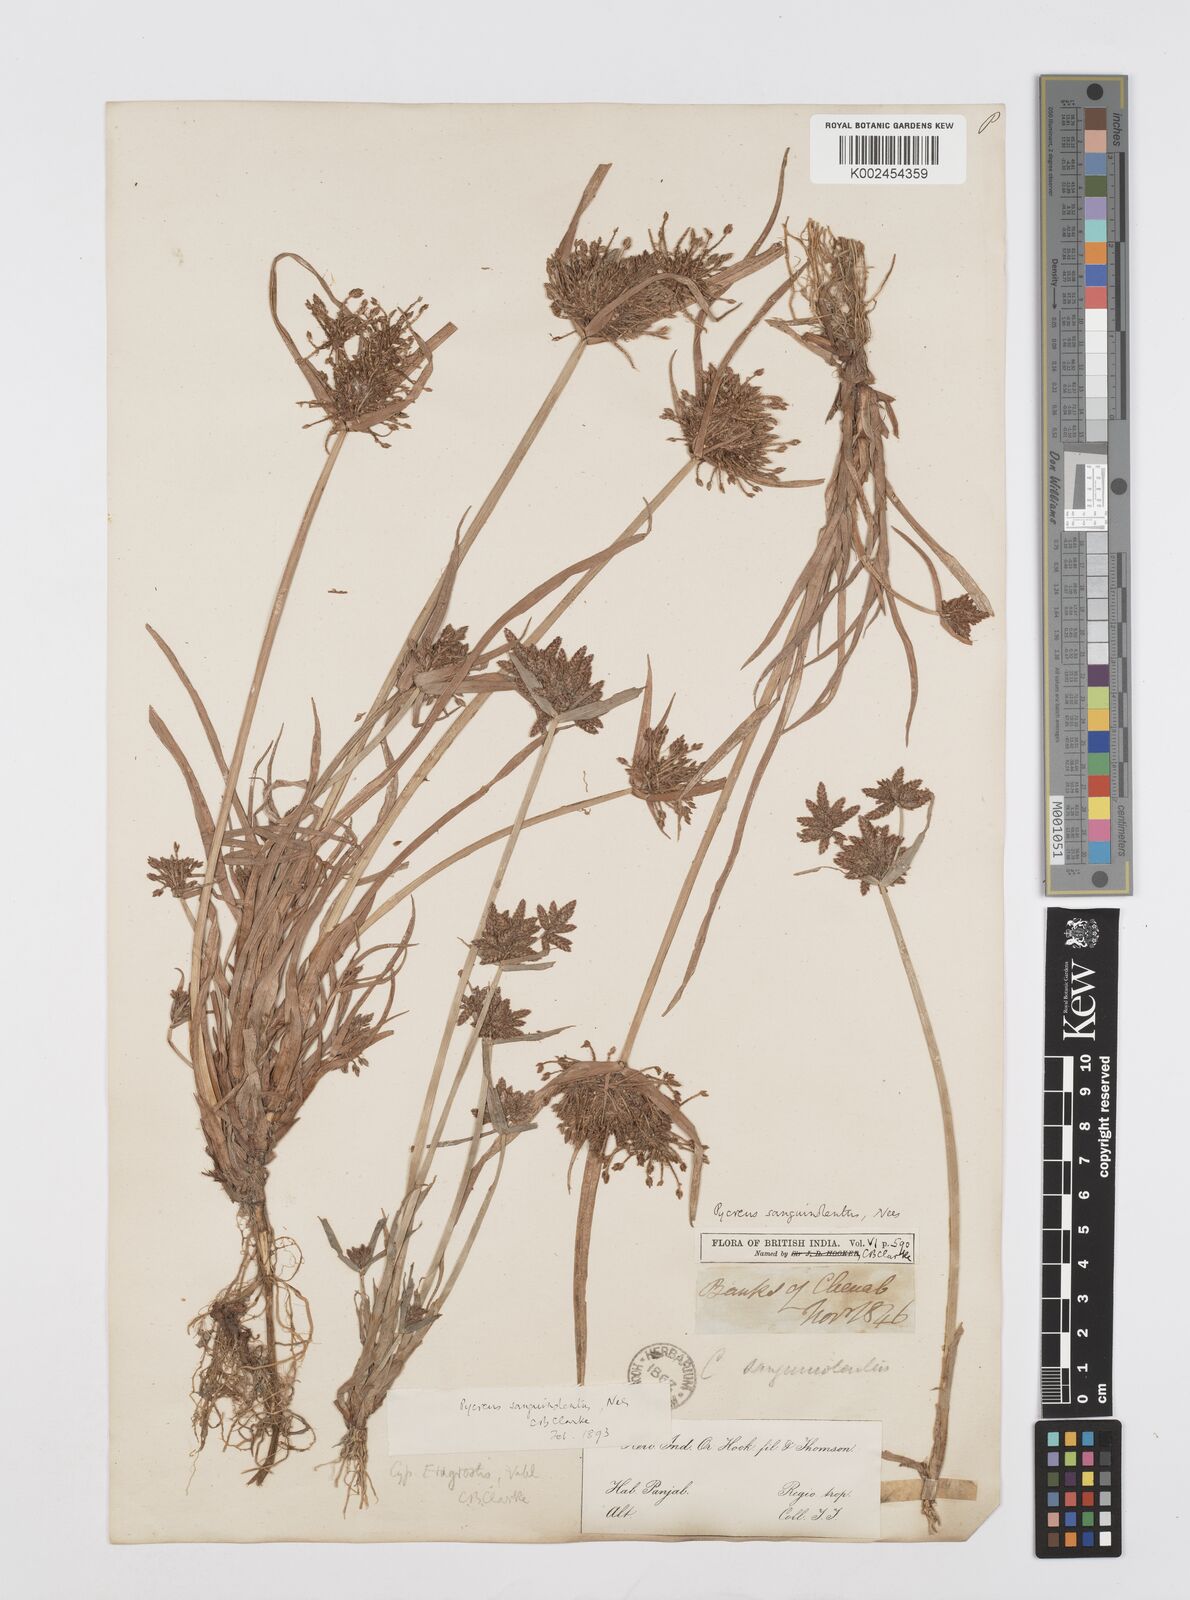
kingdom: Plantae
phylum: Tracheophyta
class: Liliopsida
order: Poales
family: Cyperaceae
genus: Cyperus
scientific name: Cyperus sanguinolentus
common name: Purpleglume flatsedge
